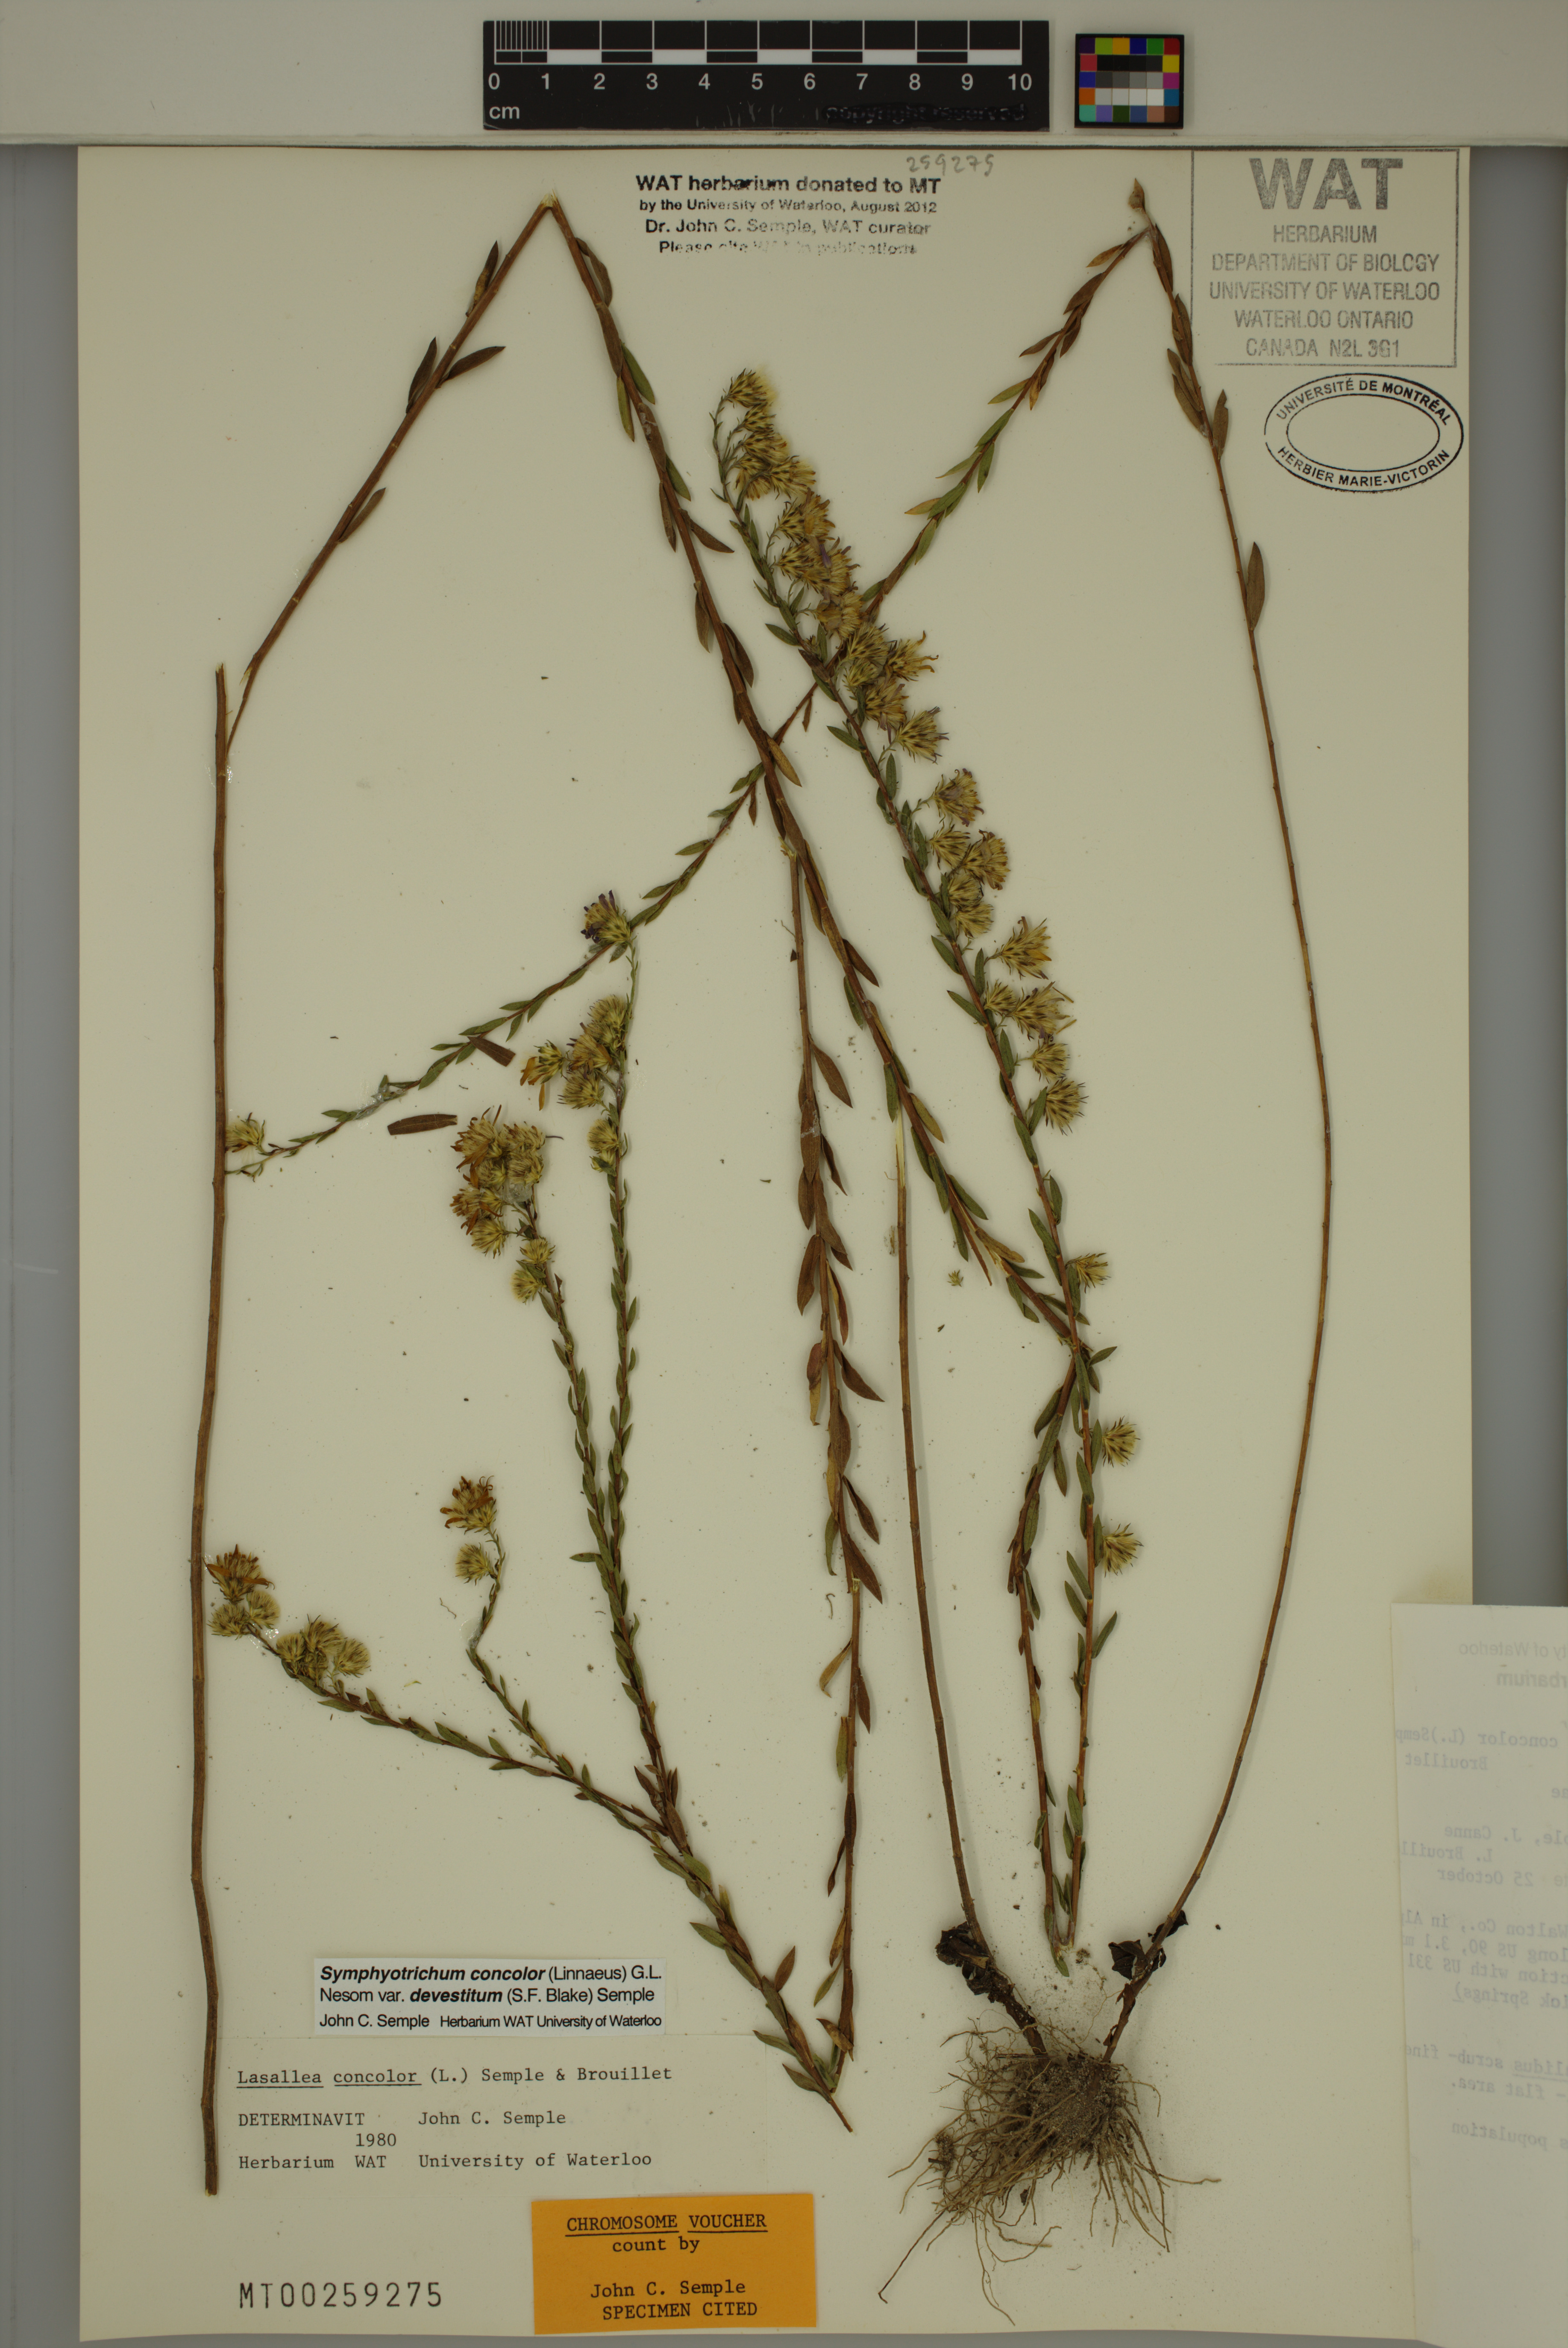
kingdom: Plantae
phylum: Tracheophyta
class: Magnoliopsida
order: Asterales
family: Asteraceae
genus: Symphyotrichum
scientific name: Symphyotrichum concolor
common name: Eastern silver aster
